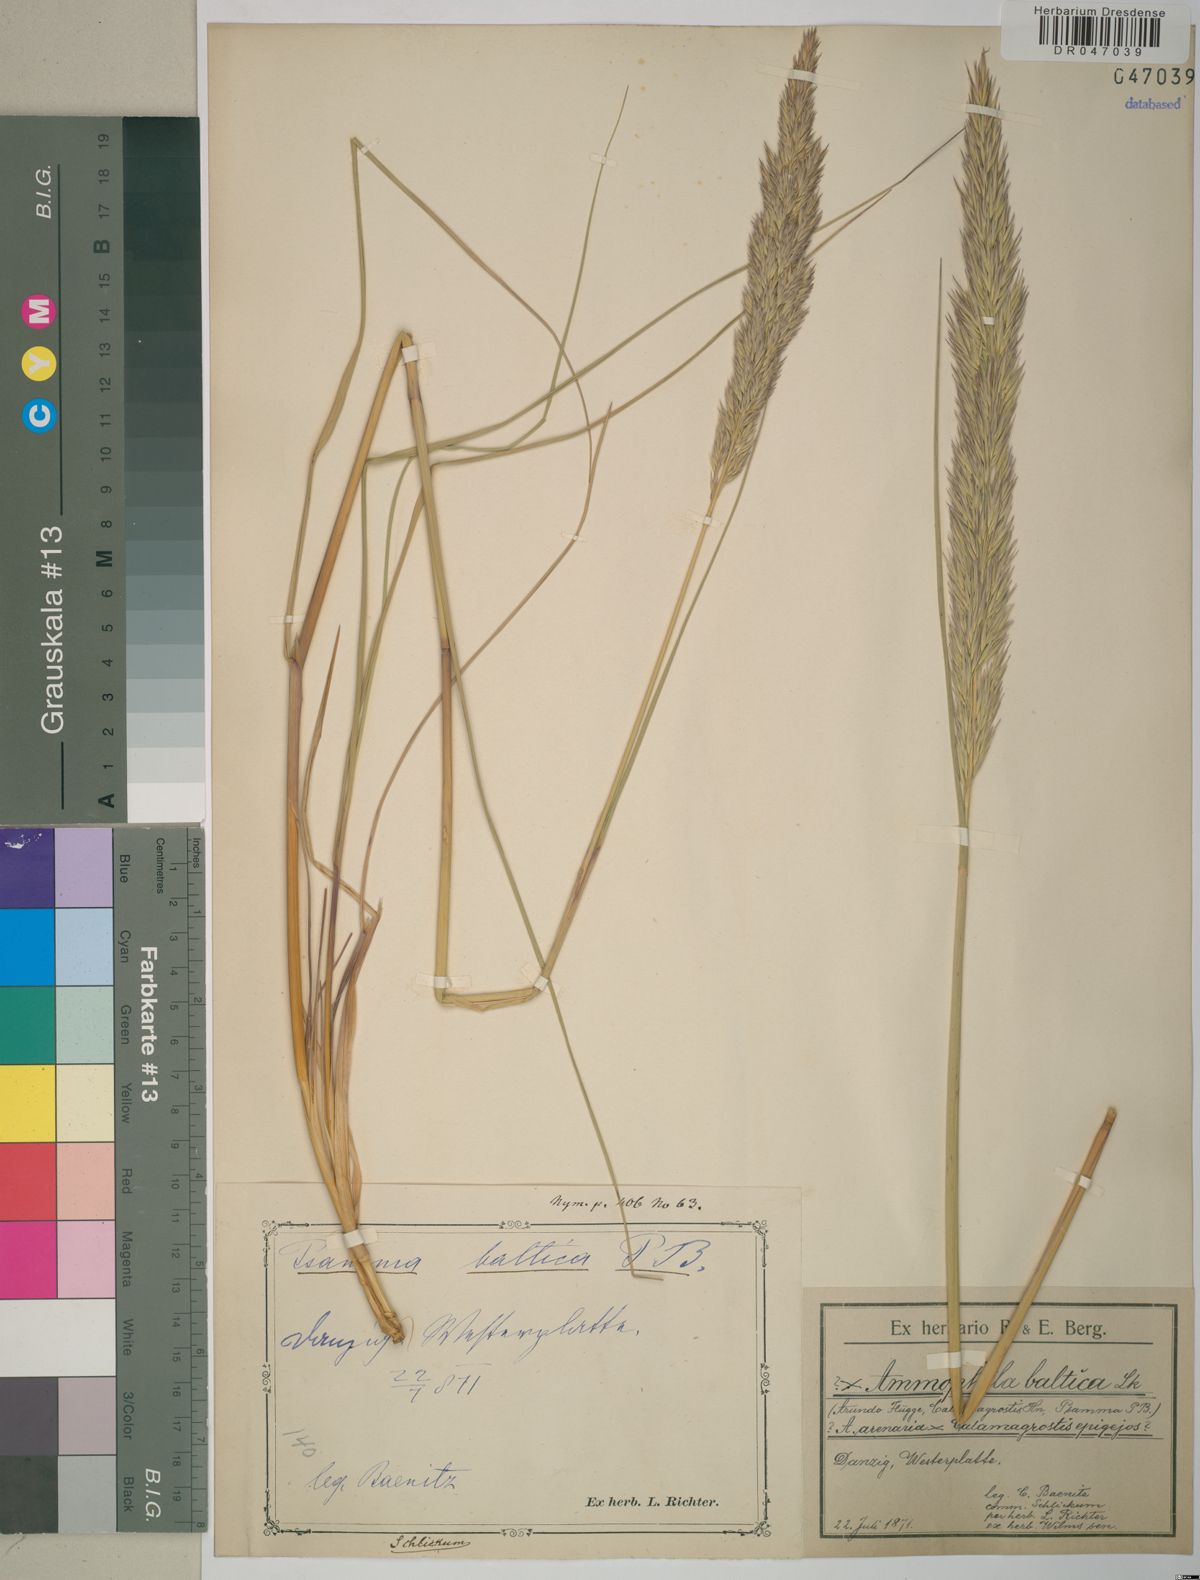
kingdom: Plantae
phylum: Tracheophyta
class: Liliopsida
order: Poales
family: Poaceae
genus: Calamagrostis
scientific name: Calamagrostis baltica
